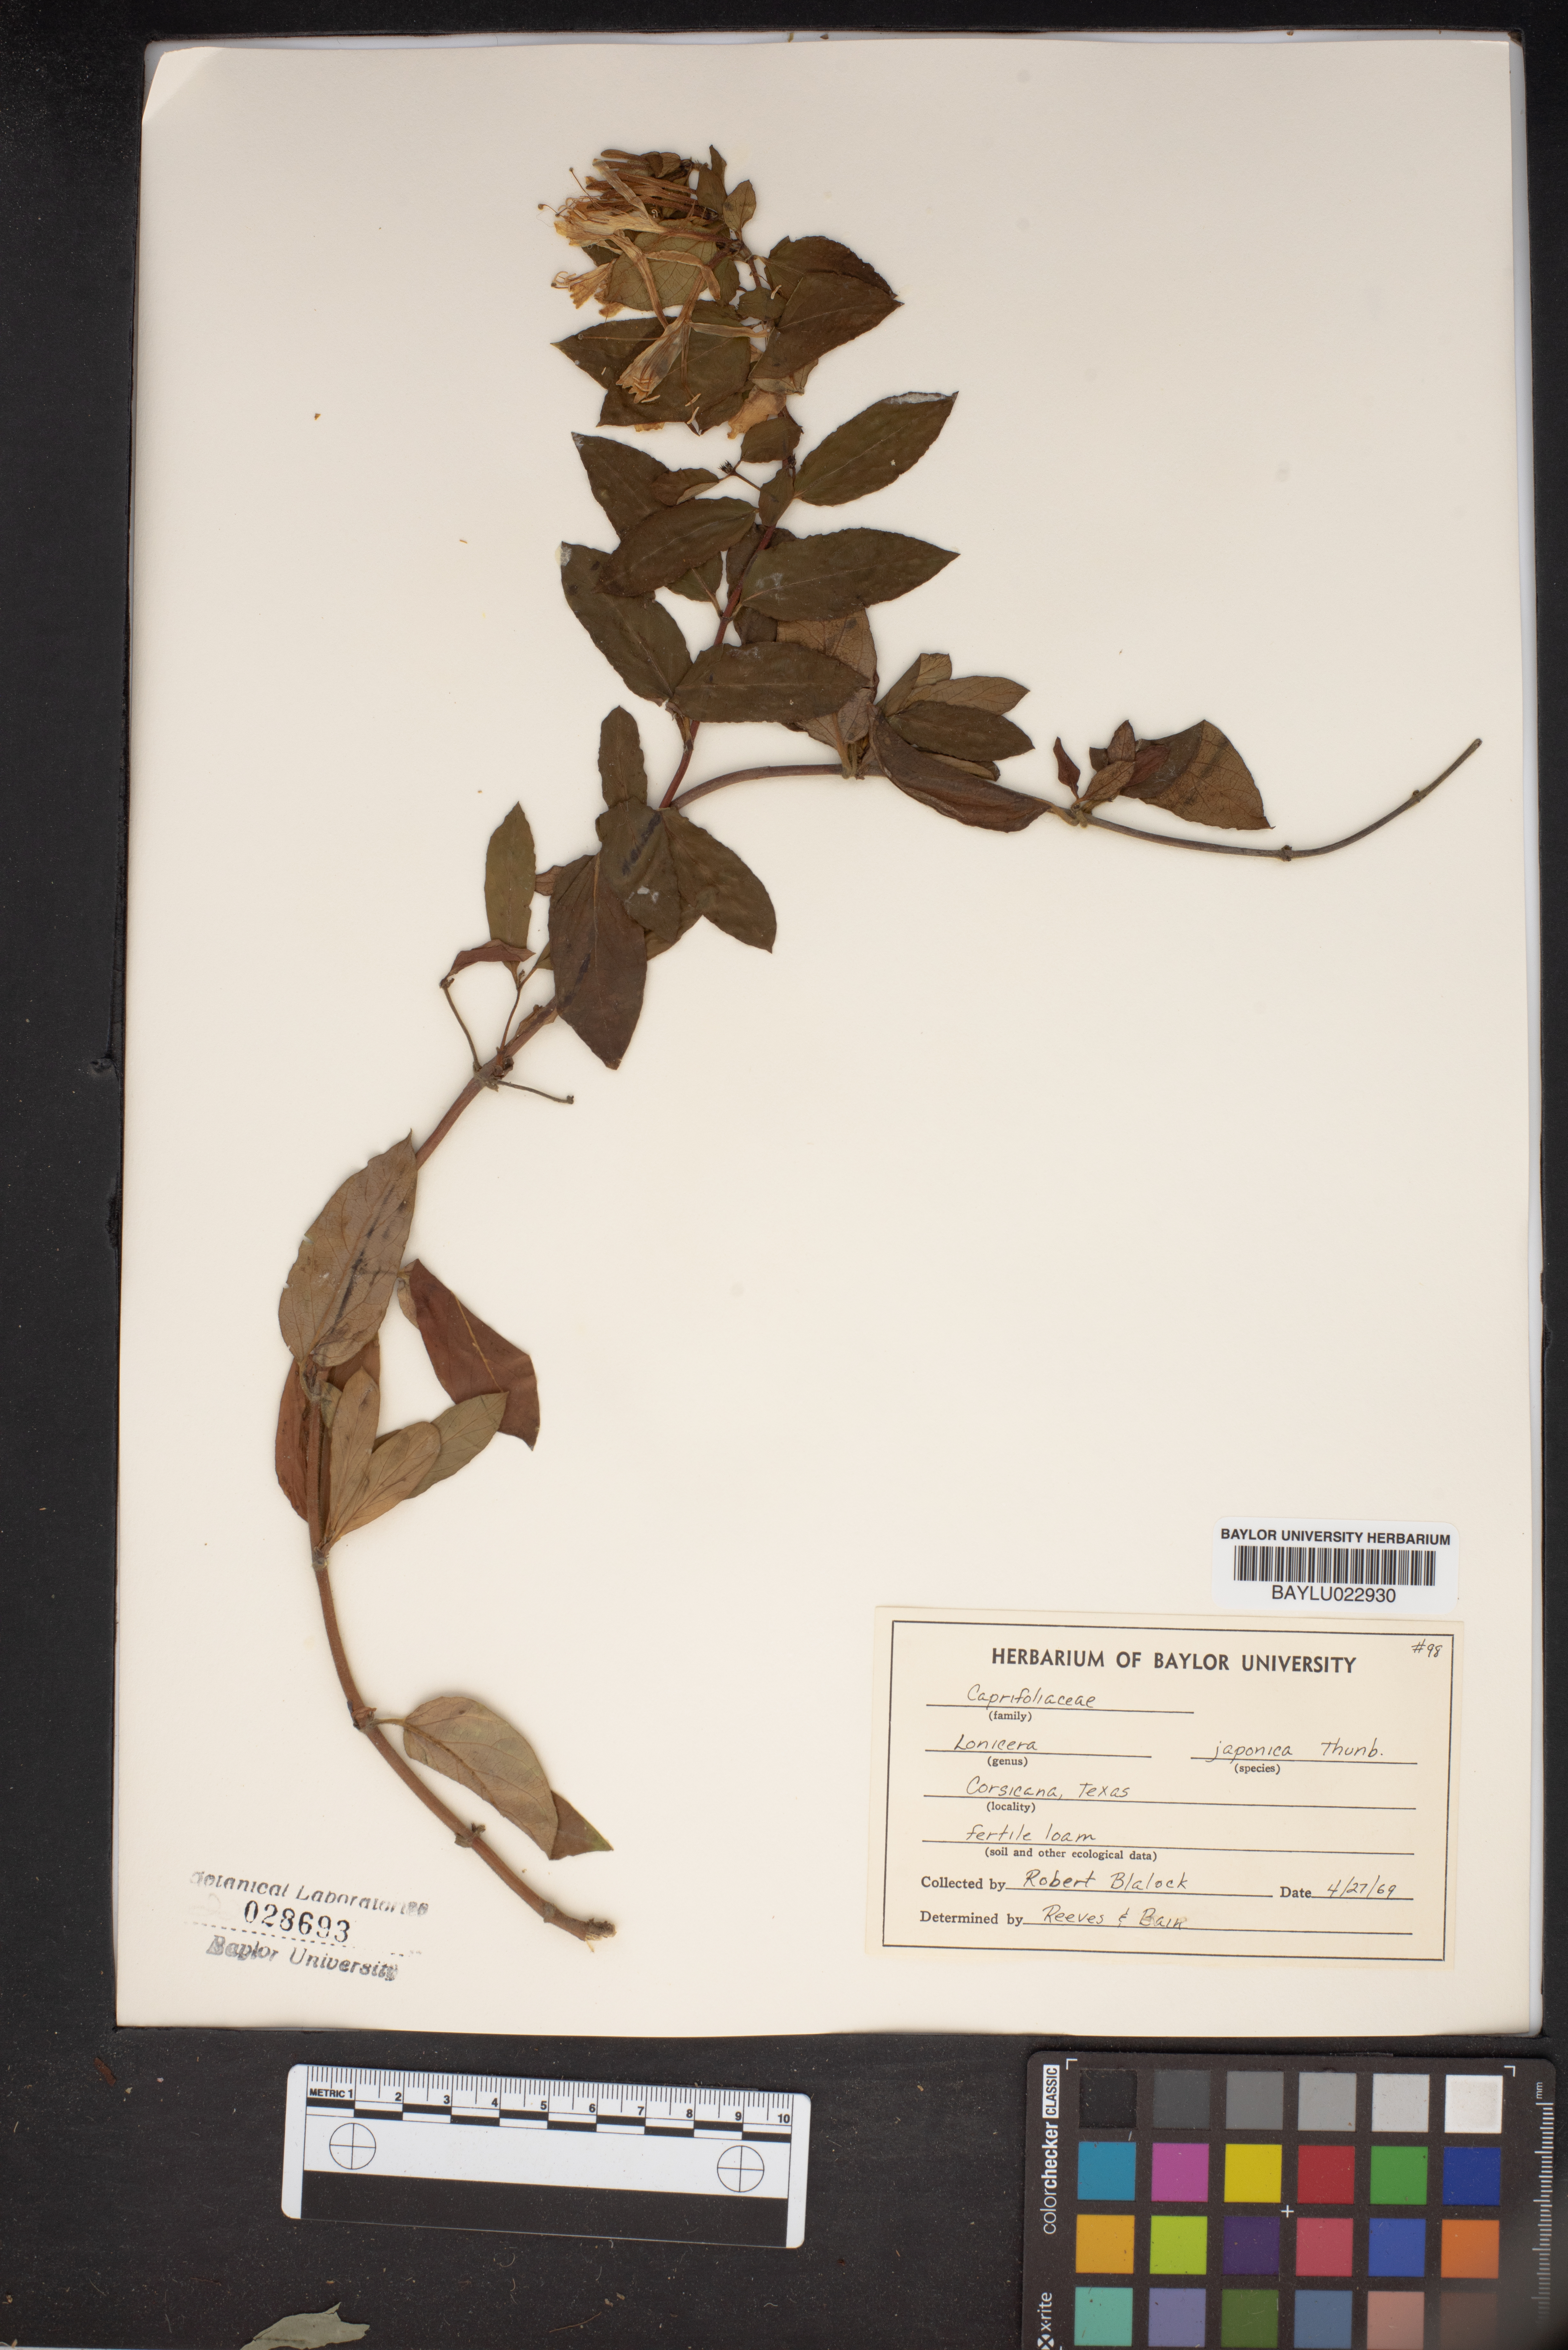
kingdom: Plantae
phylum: Tracheophyta
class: Magnoliopsida
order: Dipsacales
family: Caprifoliaceae
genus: Lonicera
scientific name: Lonicera japonica
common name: Japanese honeysuckle
